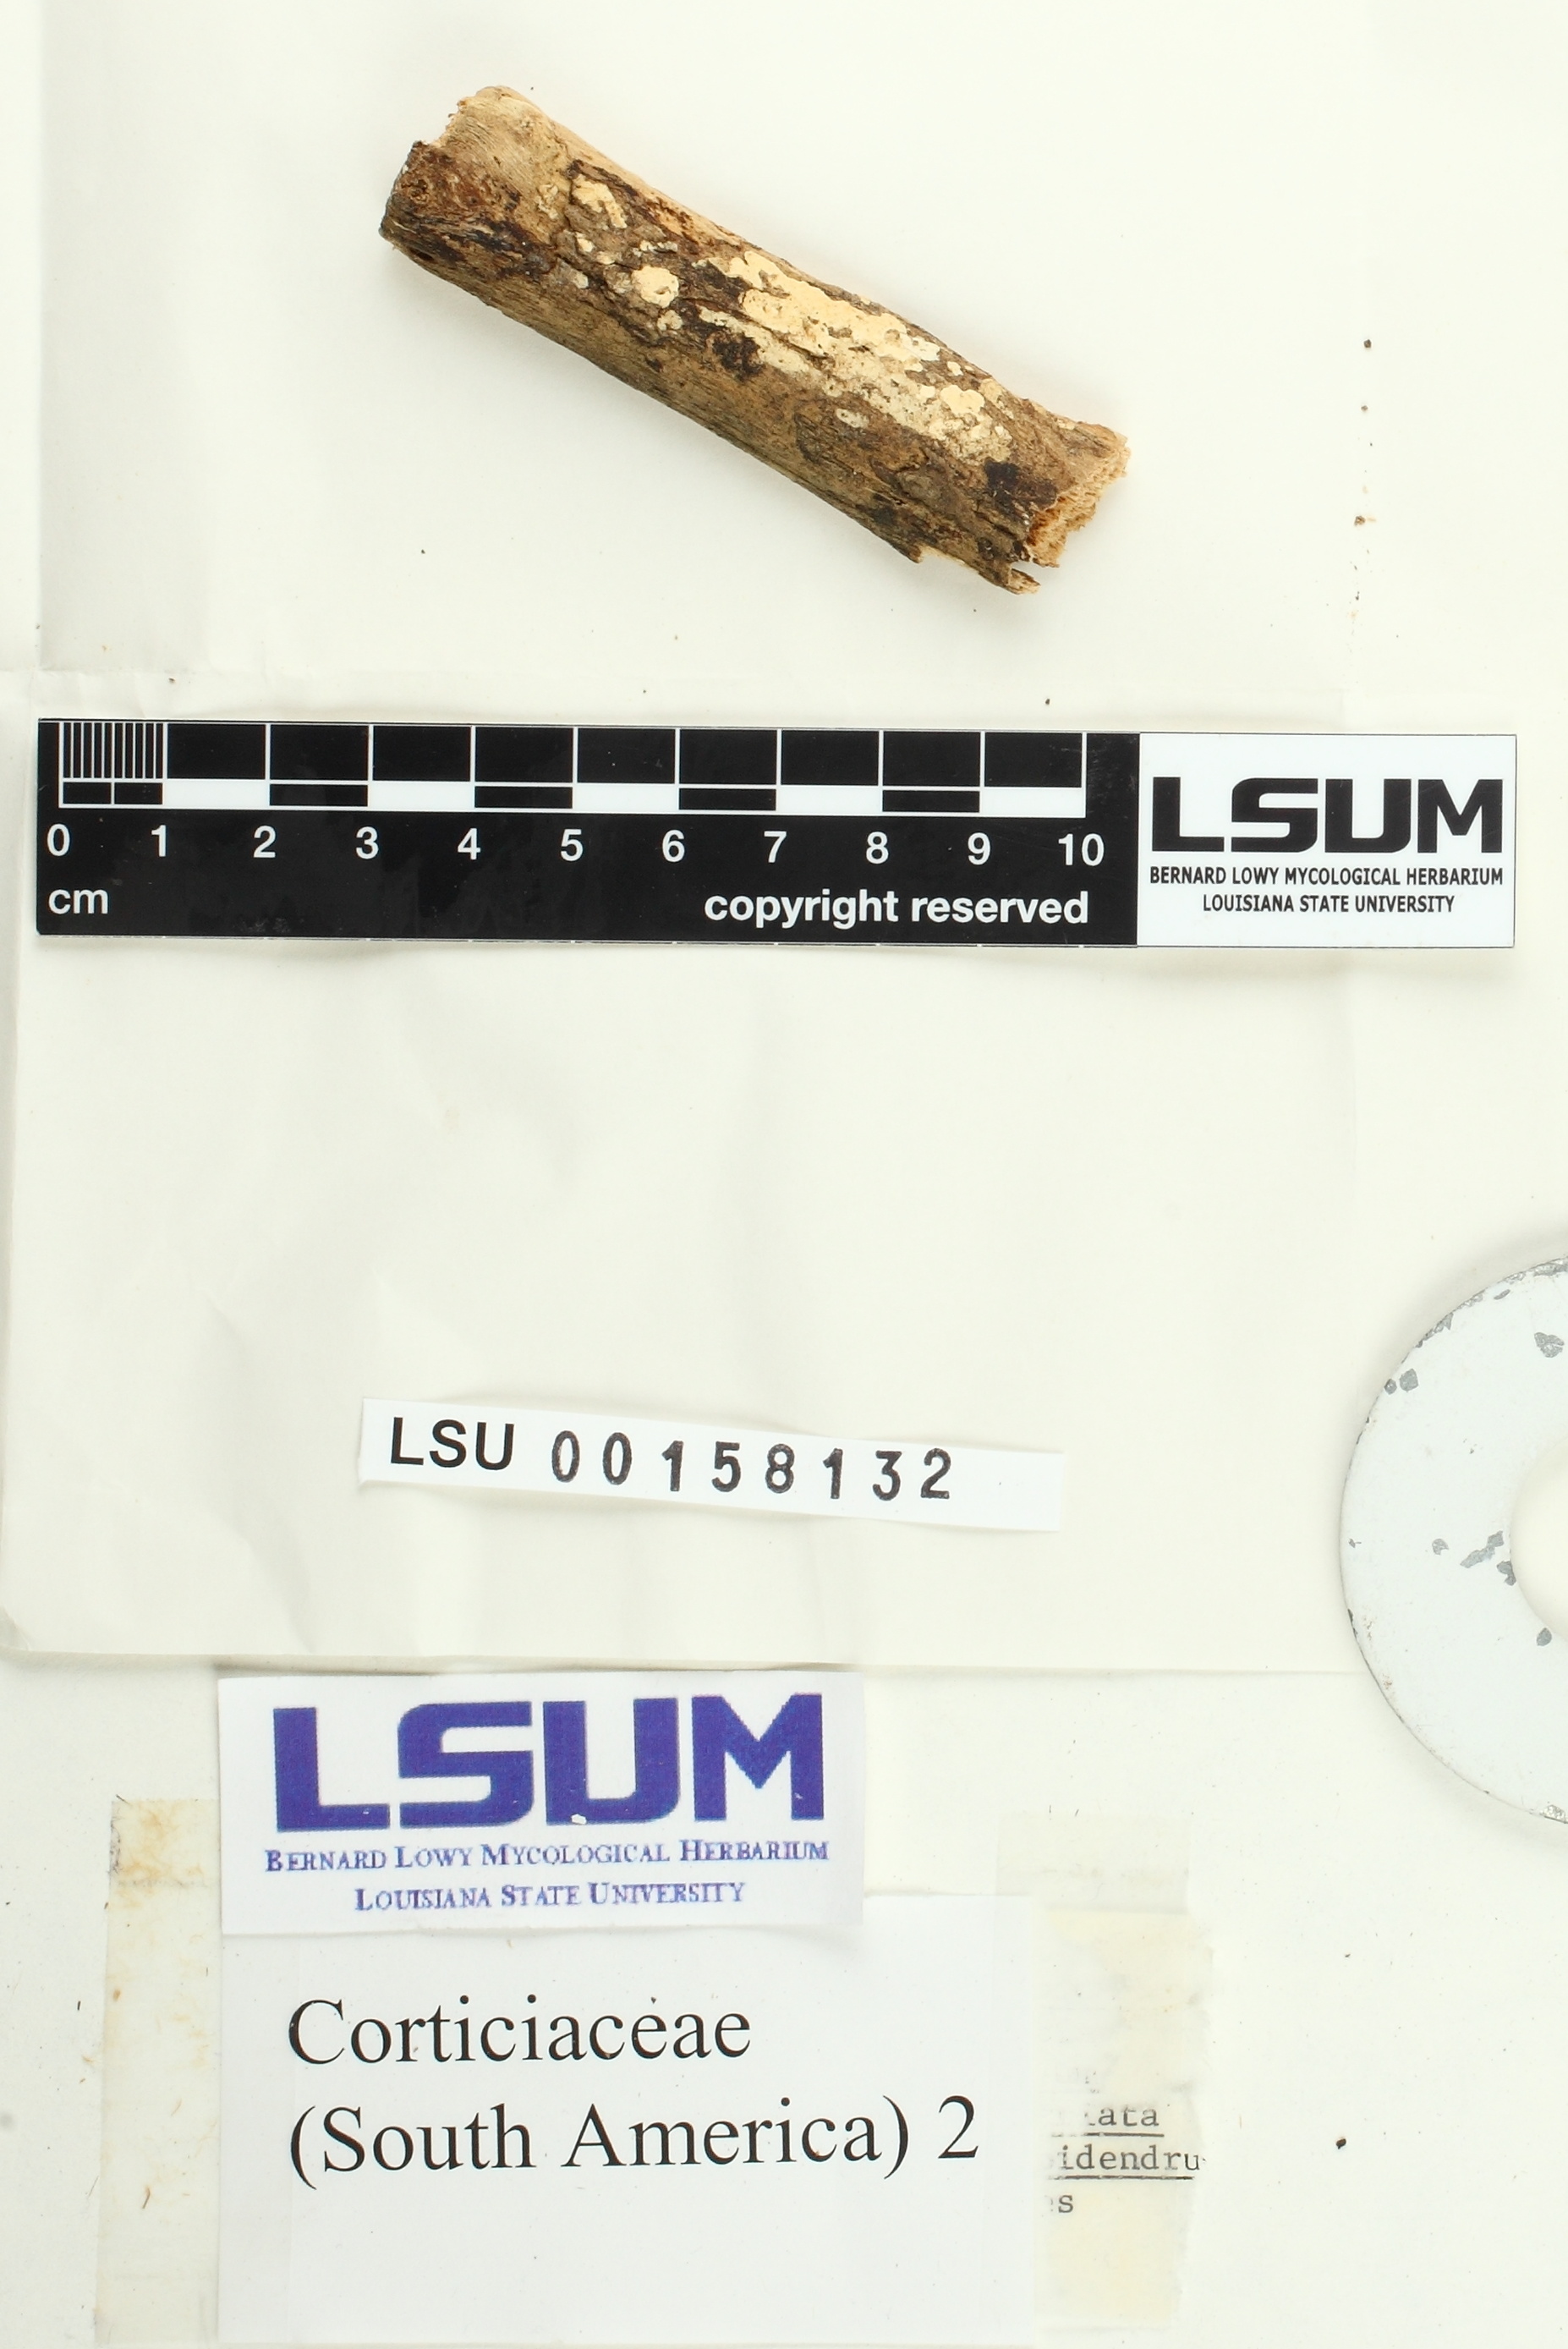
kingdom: Fungi
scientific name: Fungi
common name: Fungi
